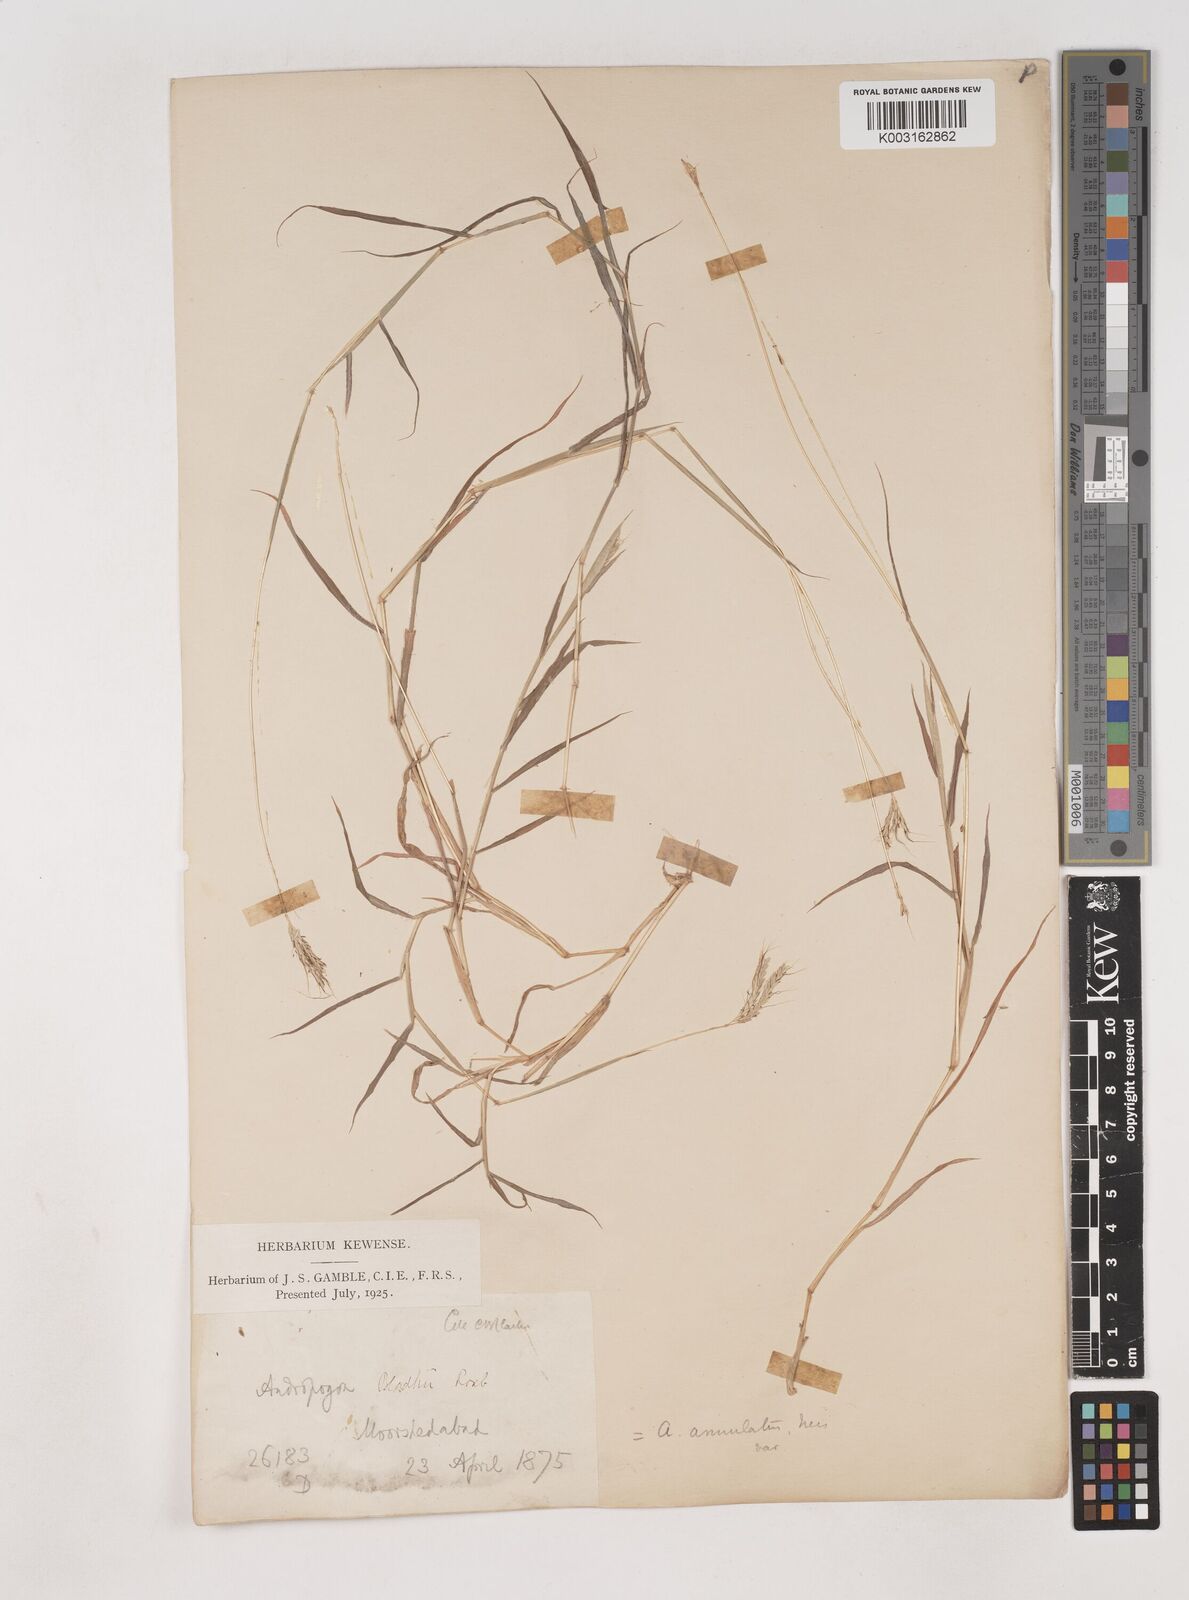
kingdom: Plantae
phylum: Tracheophyta
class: Liliopsida
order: Poales
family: Poaceae
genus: Dichanthium
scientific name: Dichanthium annulatum
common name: Kleberg's bluestem
